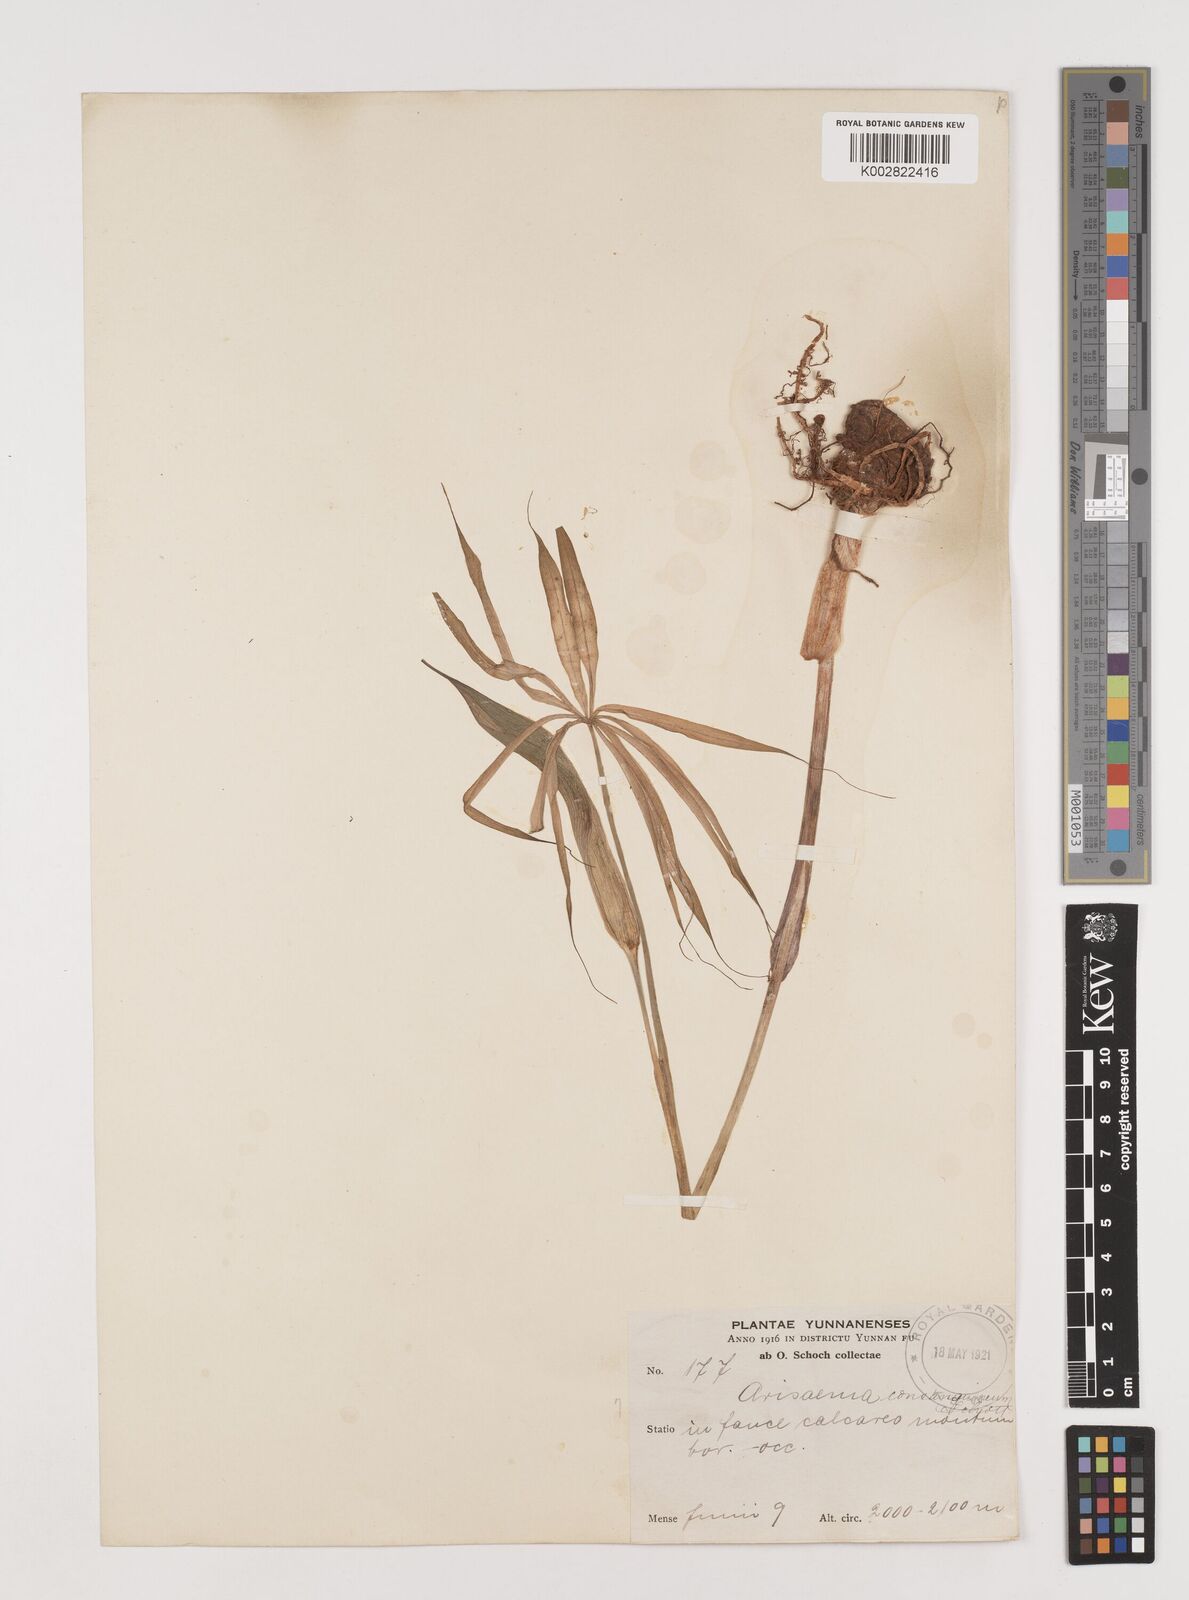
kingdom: Plantae
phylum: Tracheophyta
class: Liliopsida
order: Alismatales
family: Araceae
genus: Arisaema
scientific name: Arisaema erubescens
